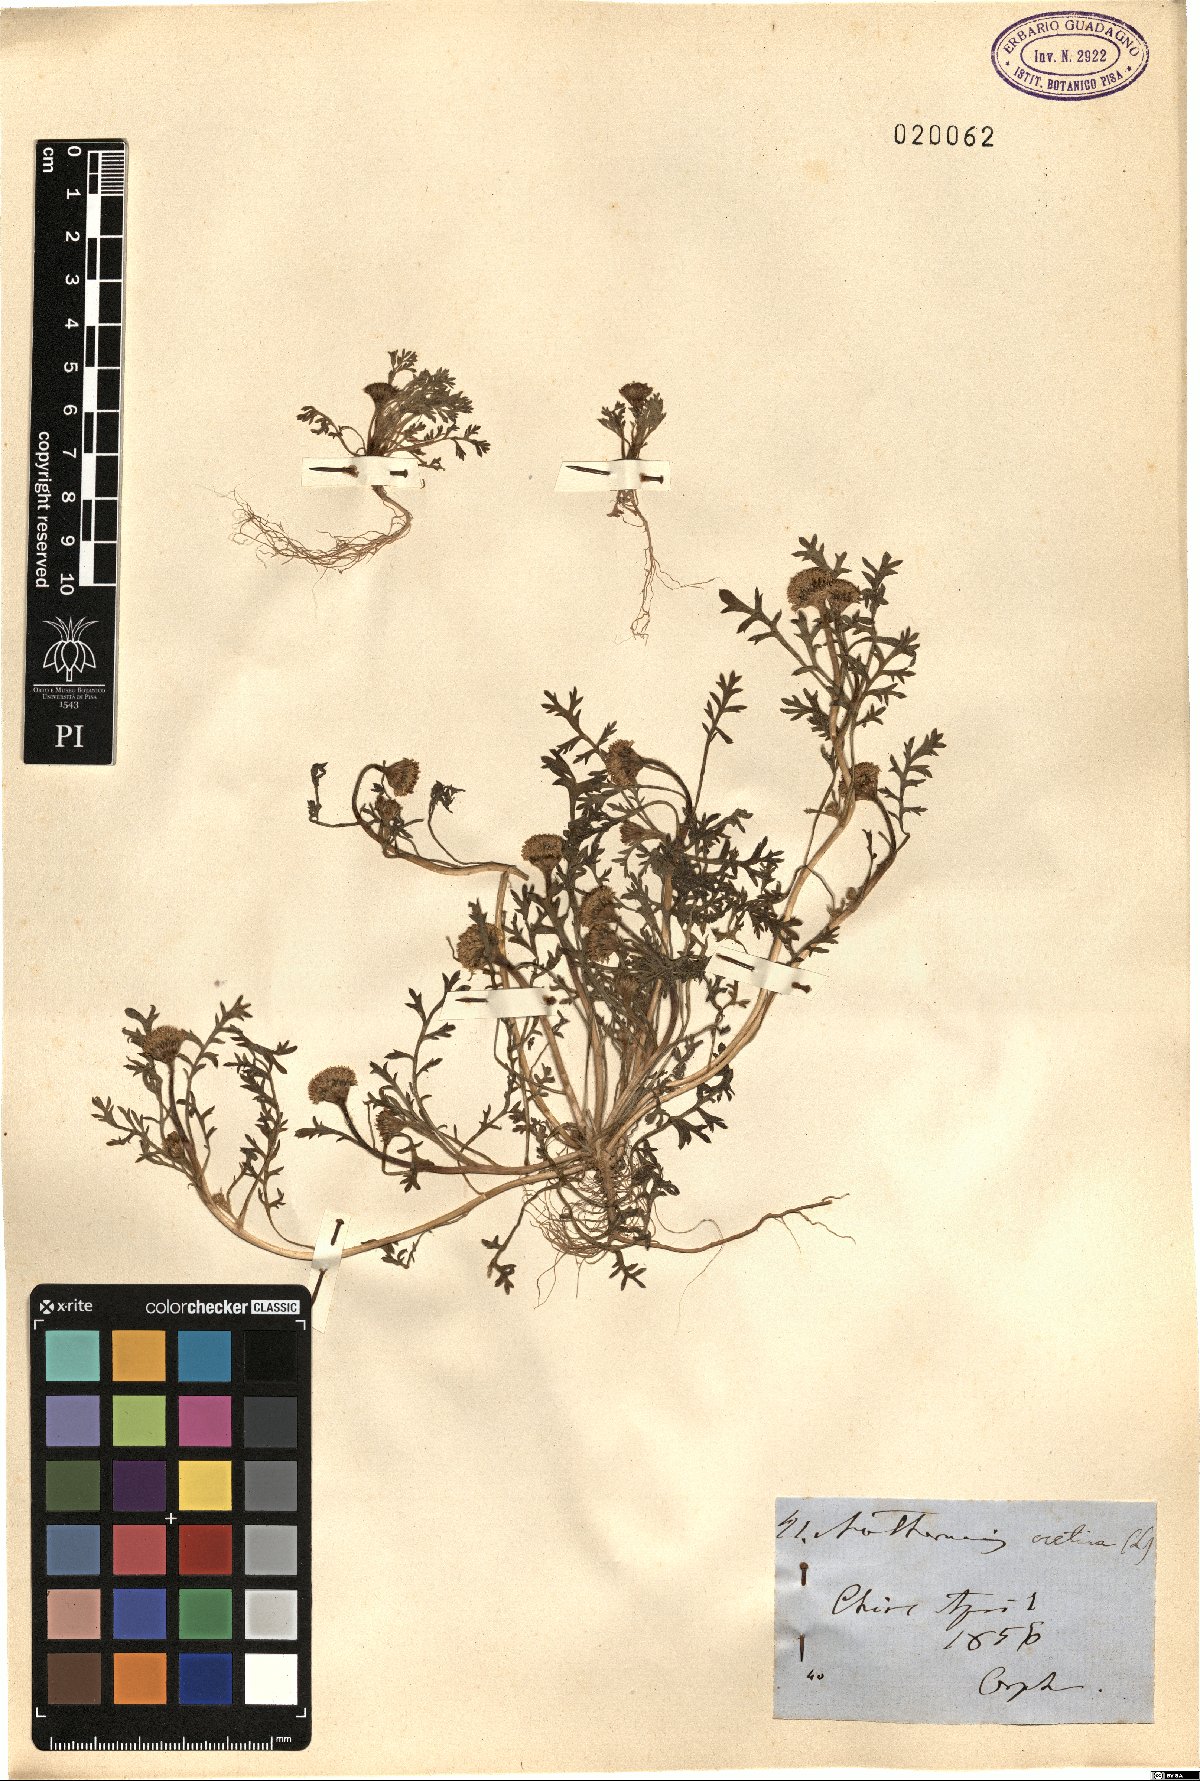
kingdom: Plantae
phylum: Tracheophyta
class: Magnoliopsida
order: Asterales
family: Asteraceae
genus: Anthemis
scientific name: Anthemis cretica
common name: Mountain dog-daisy
